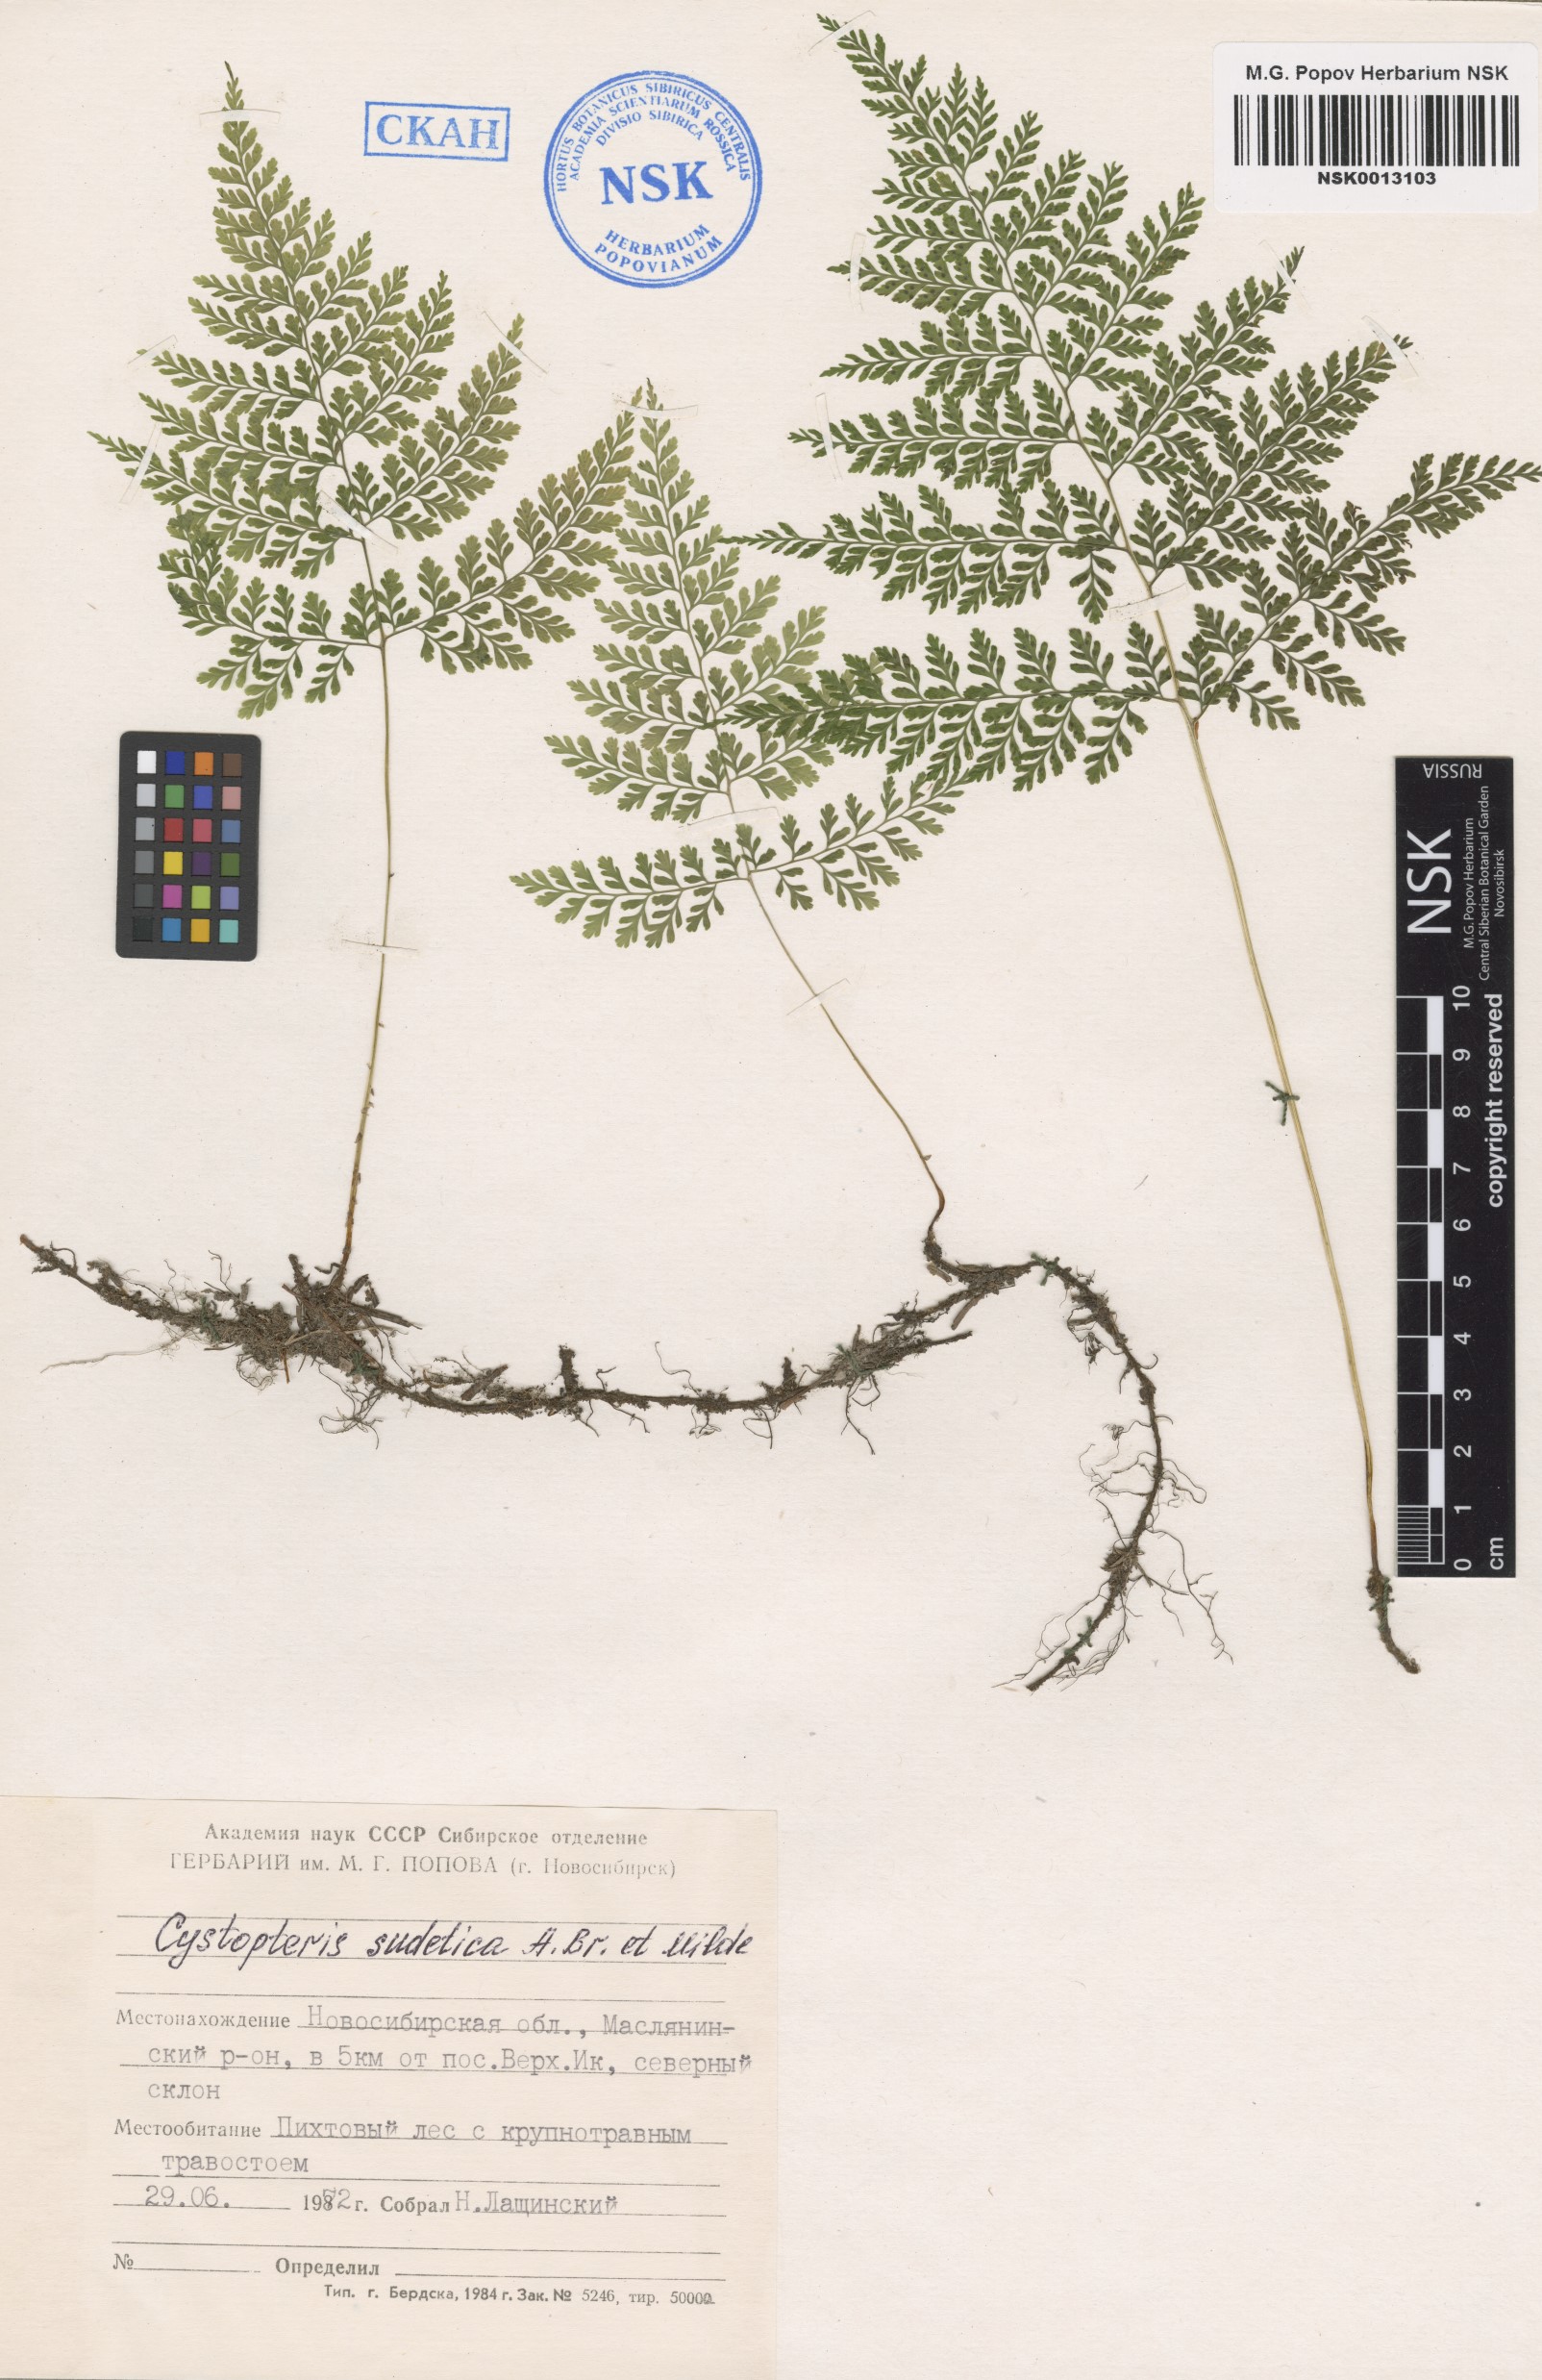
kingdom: Plantae
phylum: Tracheophyta
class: Polypodiopsida
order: Polypodiales
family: Cystopteridaceae
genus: Cystopteris
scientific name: Cystopteris sudetica
